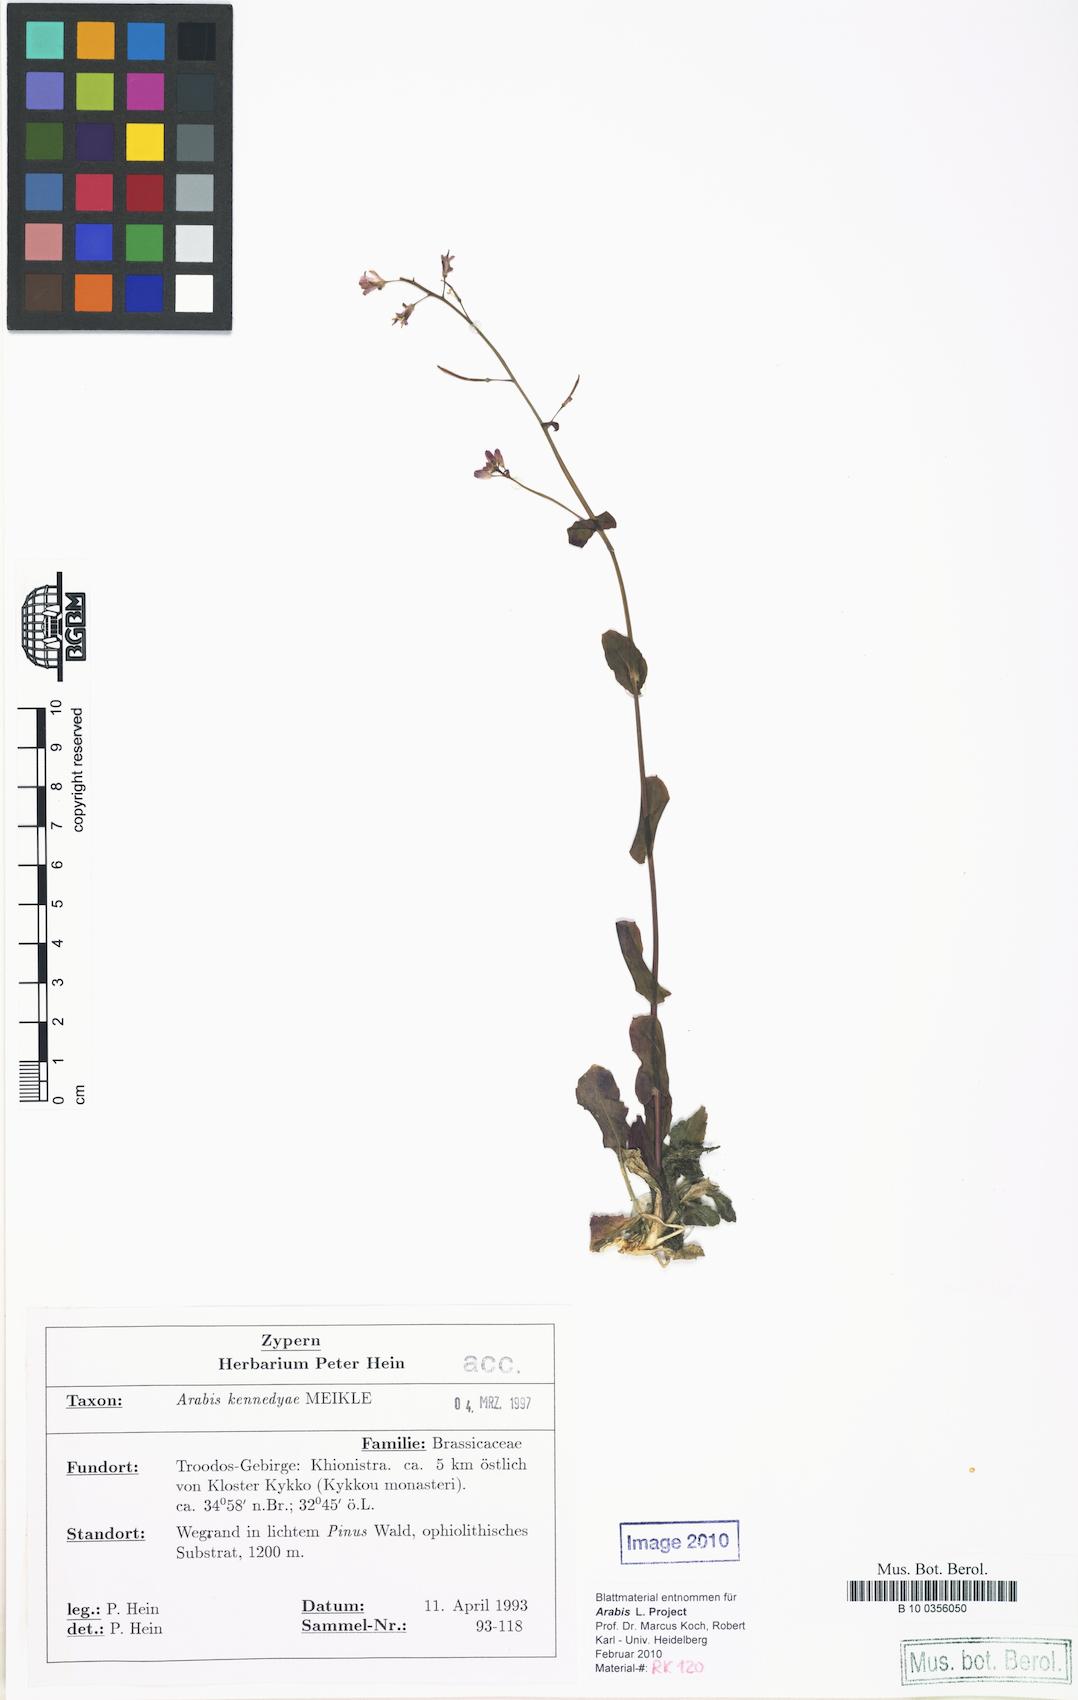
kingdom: Plantae
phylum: Tracheophyta
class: Magnoliopsida
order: Brassicales
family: Brassicaceae
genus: Turritis
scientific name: Turritis laxa
